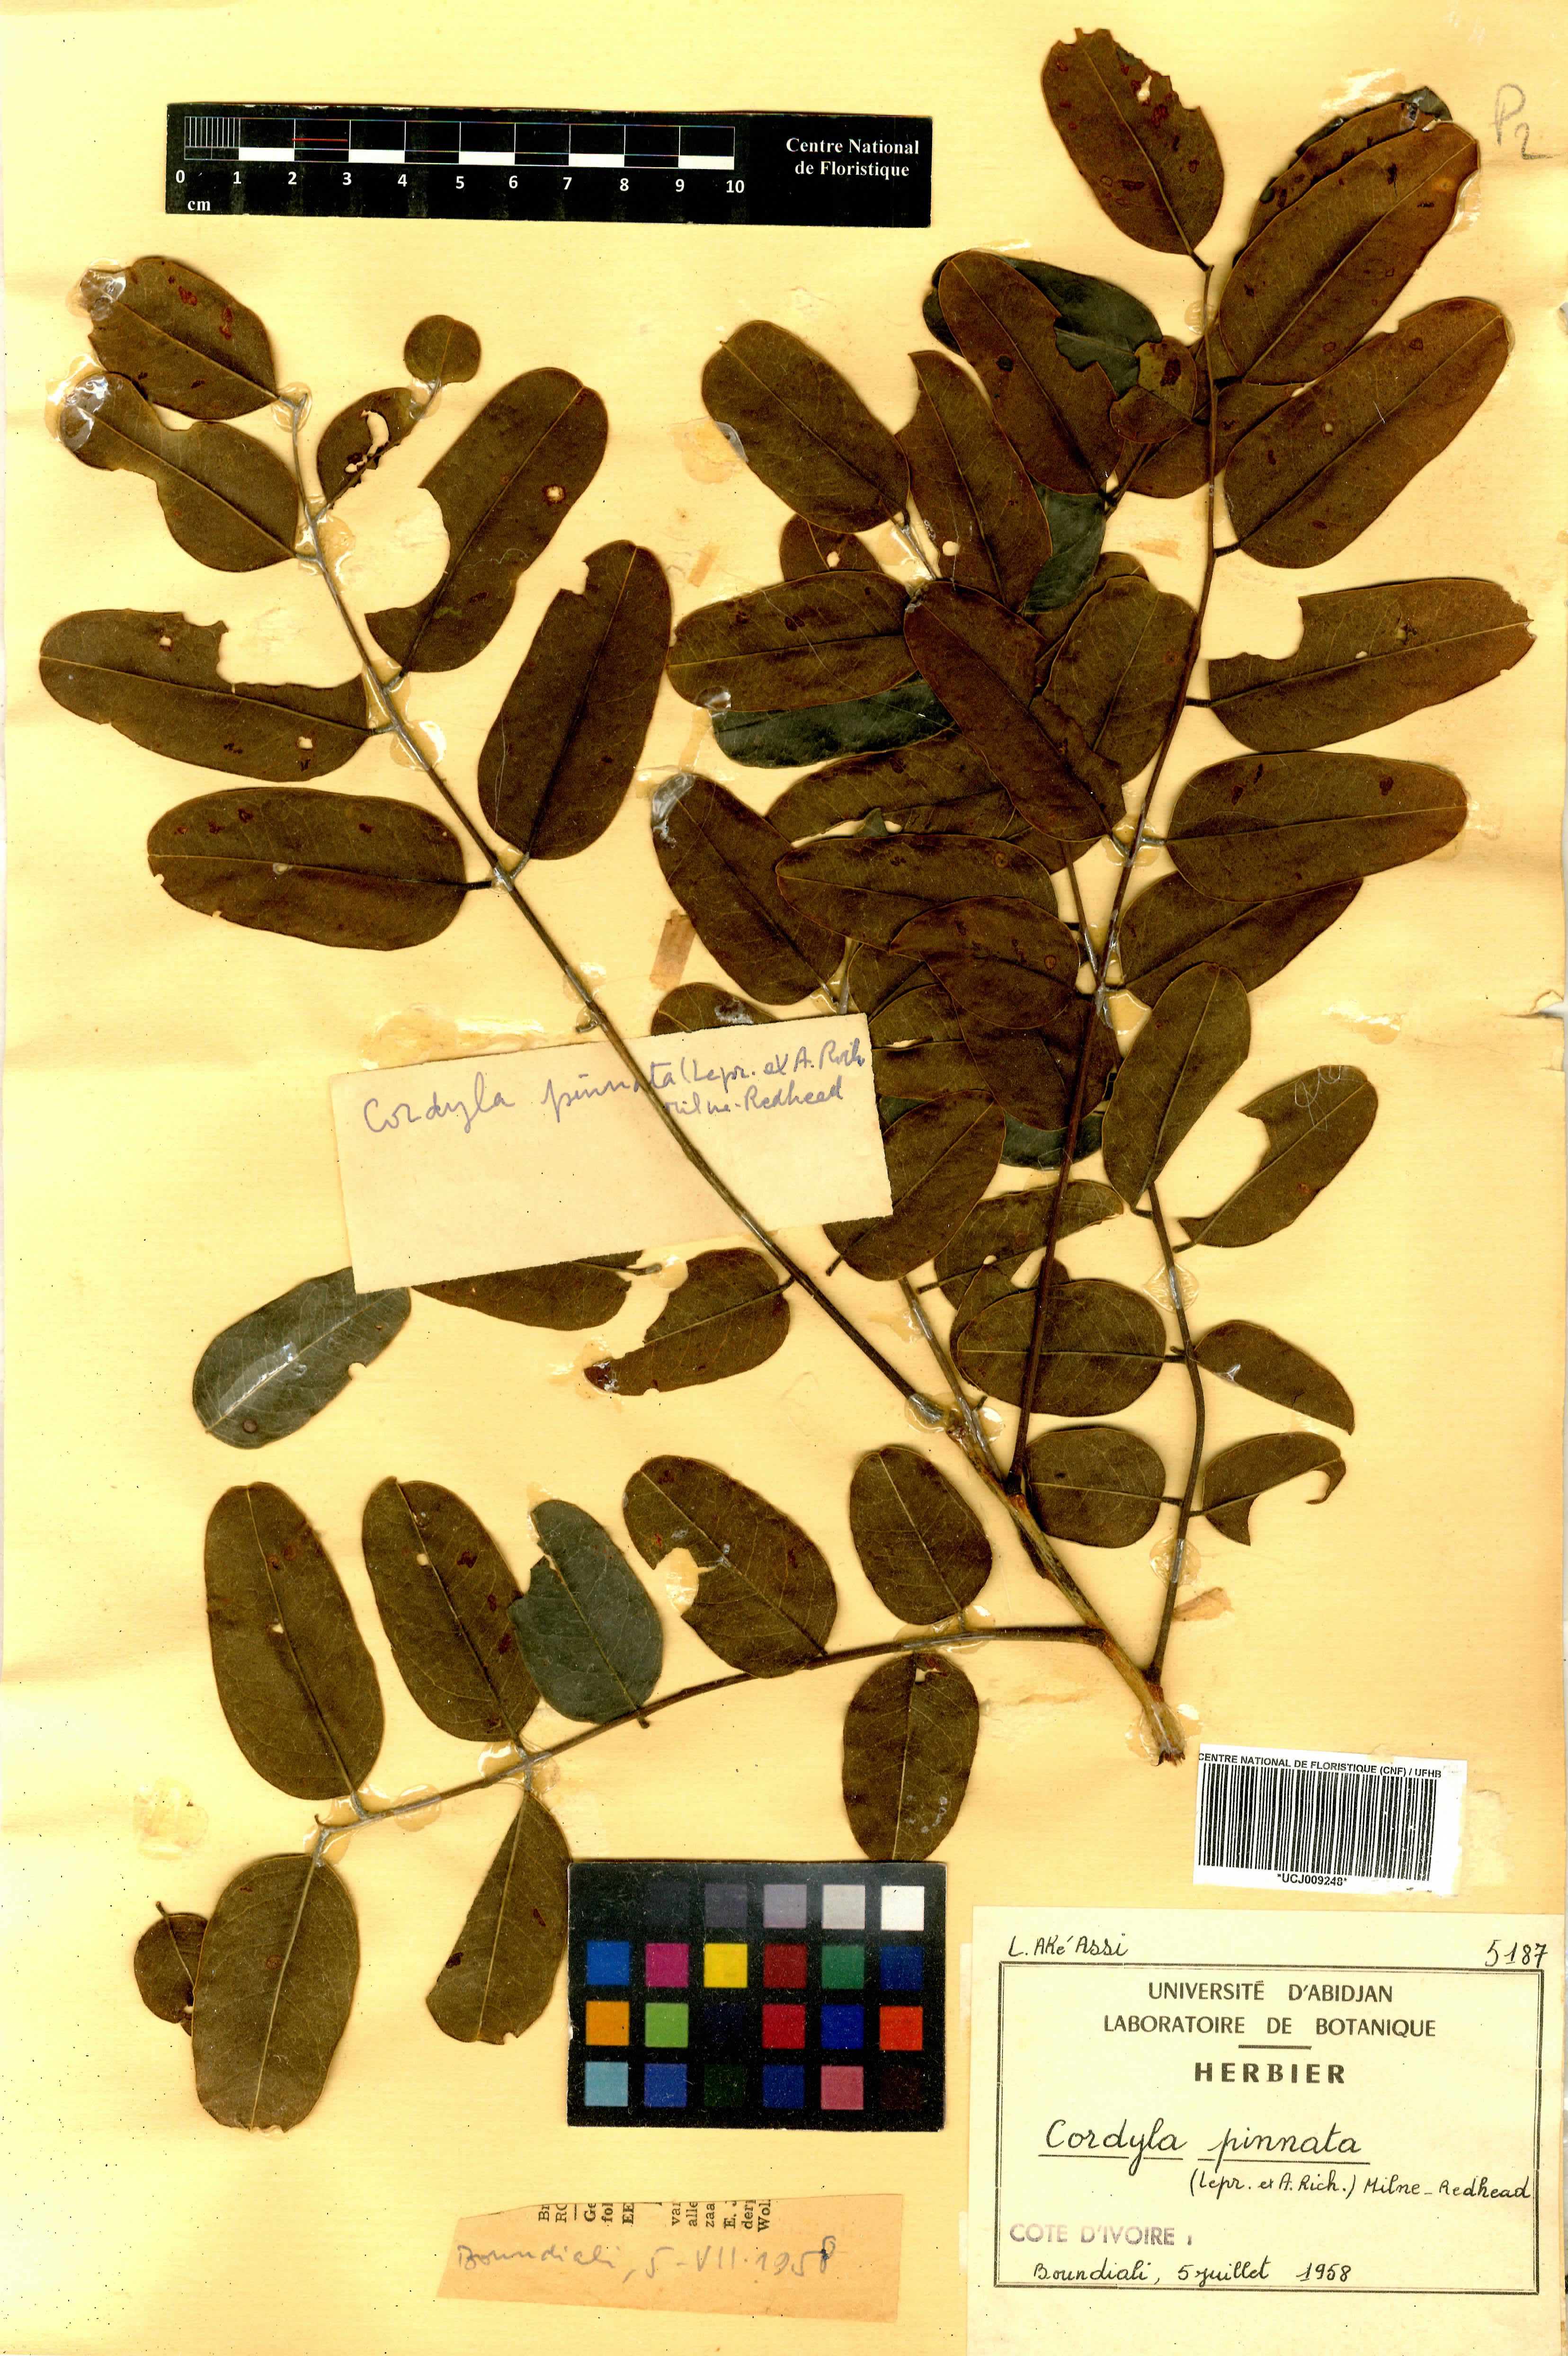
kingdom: Plantae
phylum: Tracheophyta
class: Magnoliopsida
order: Fabales
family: Fabaceae
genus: Cordyla
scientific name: Cordyla pinnata
